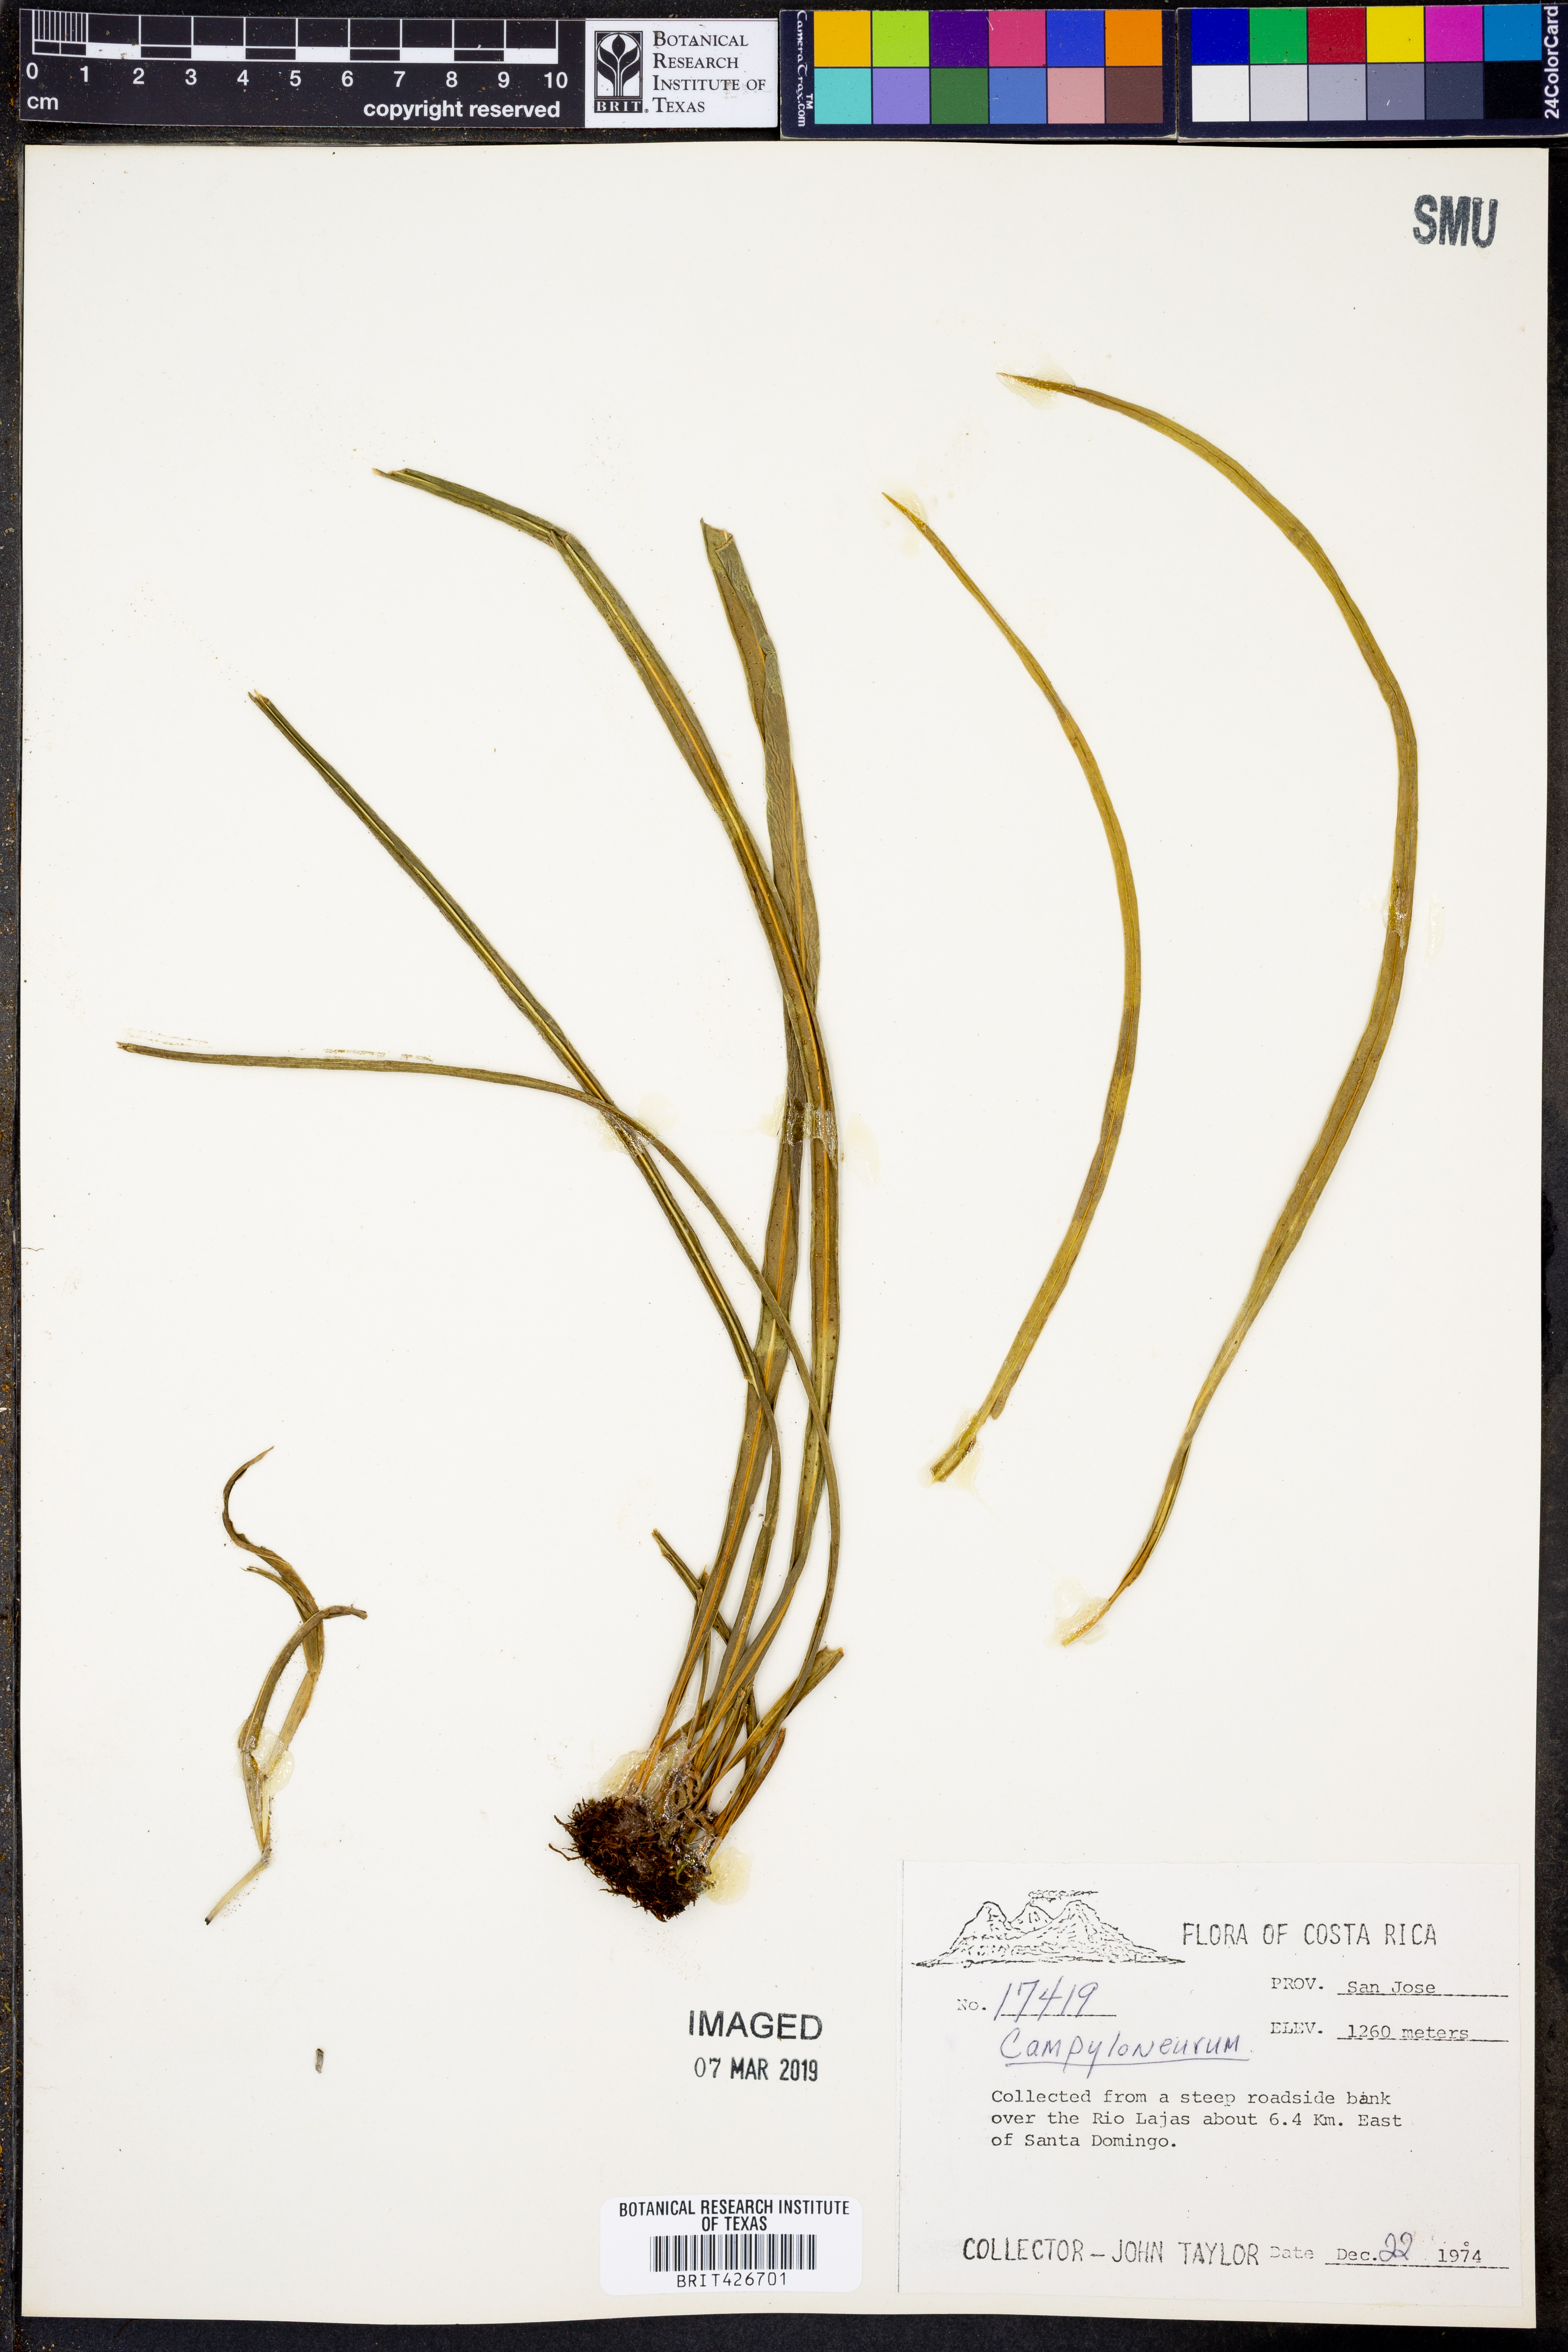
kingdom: Plantae
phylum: Tracheophyta
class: Polypodiopsida
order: Polypodiales
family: Polypodiaceae
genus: Campyloneurum
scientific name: Campyloneurum
